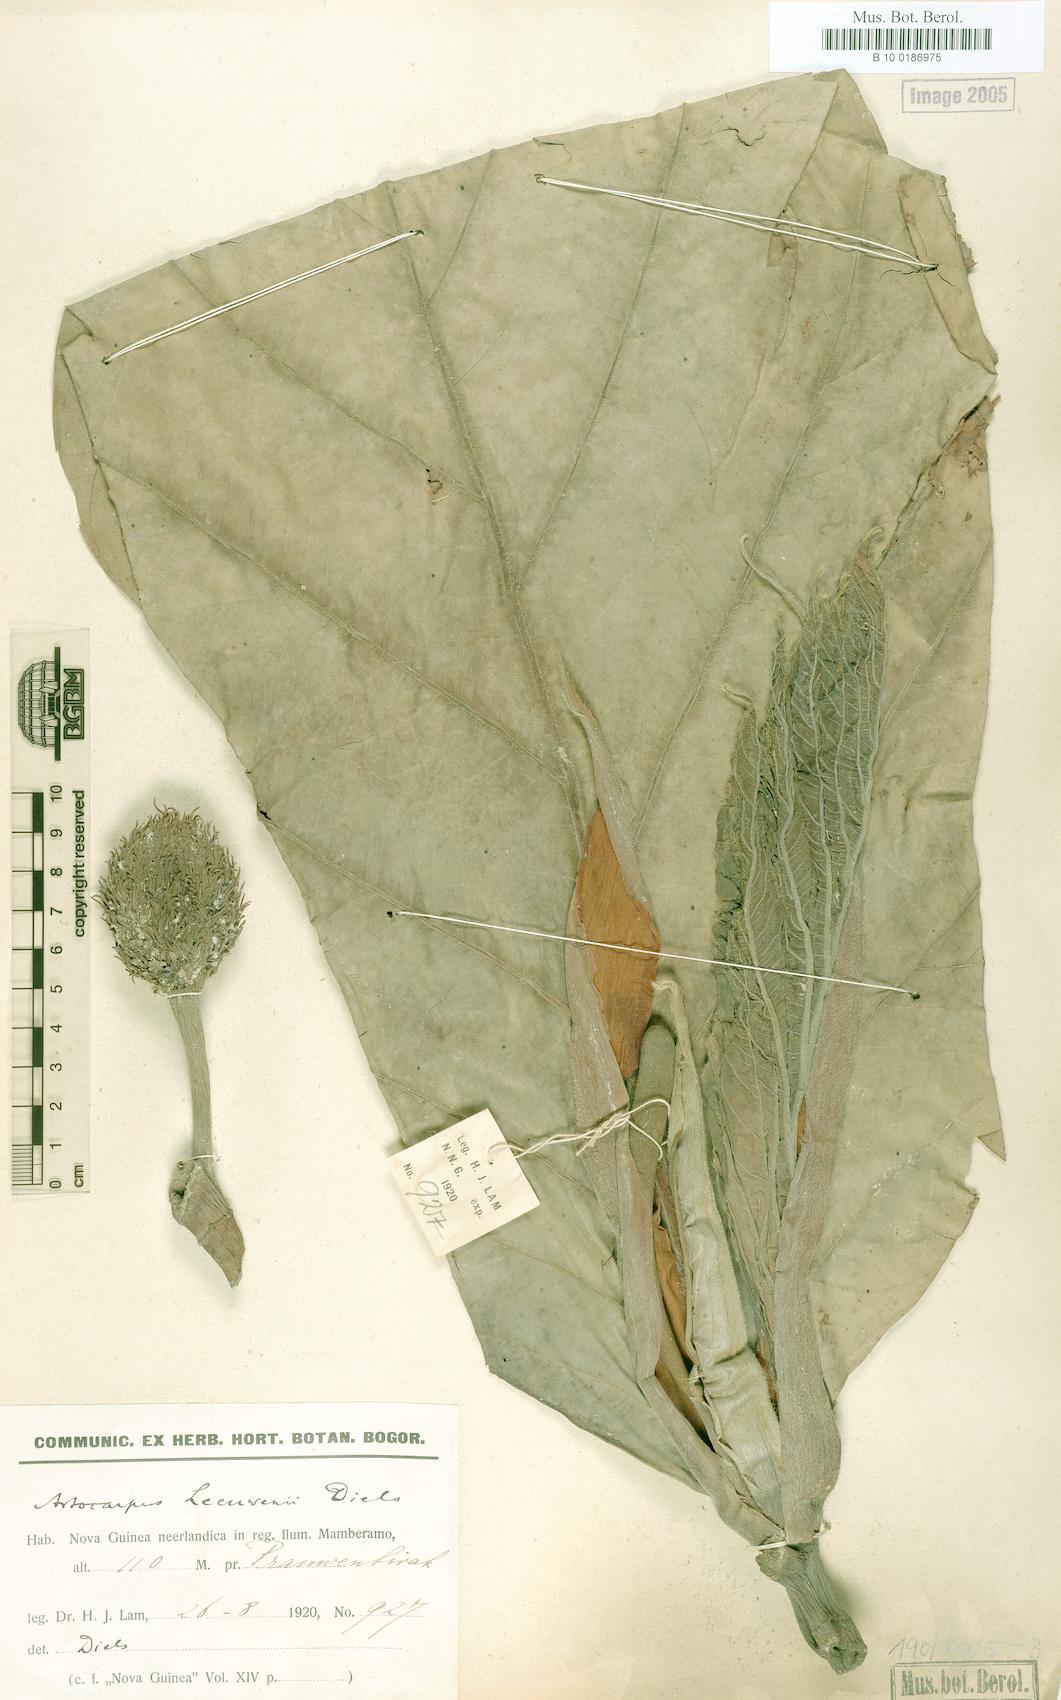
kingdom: Plantae
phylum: Tracheophyta
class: Magnoliopsida
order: Rosales
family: Moraceae
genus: Artocarpus
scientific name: Artocarpus altilis
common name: Breadfruit
